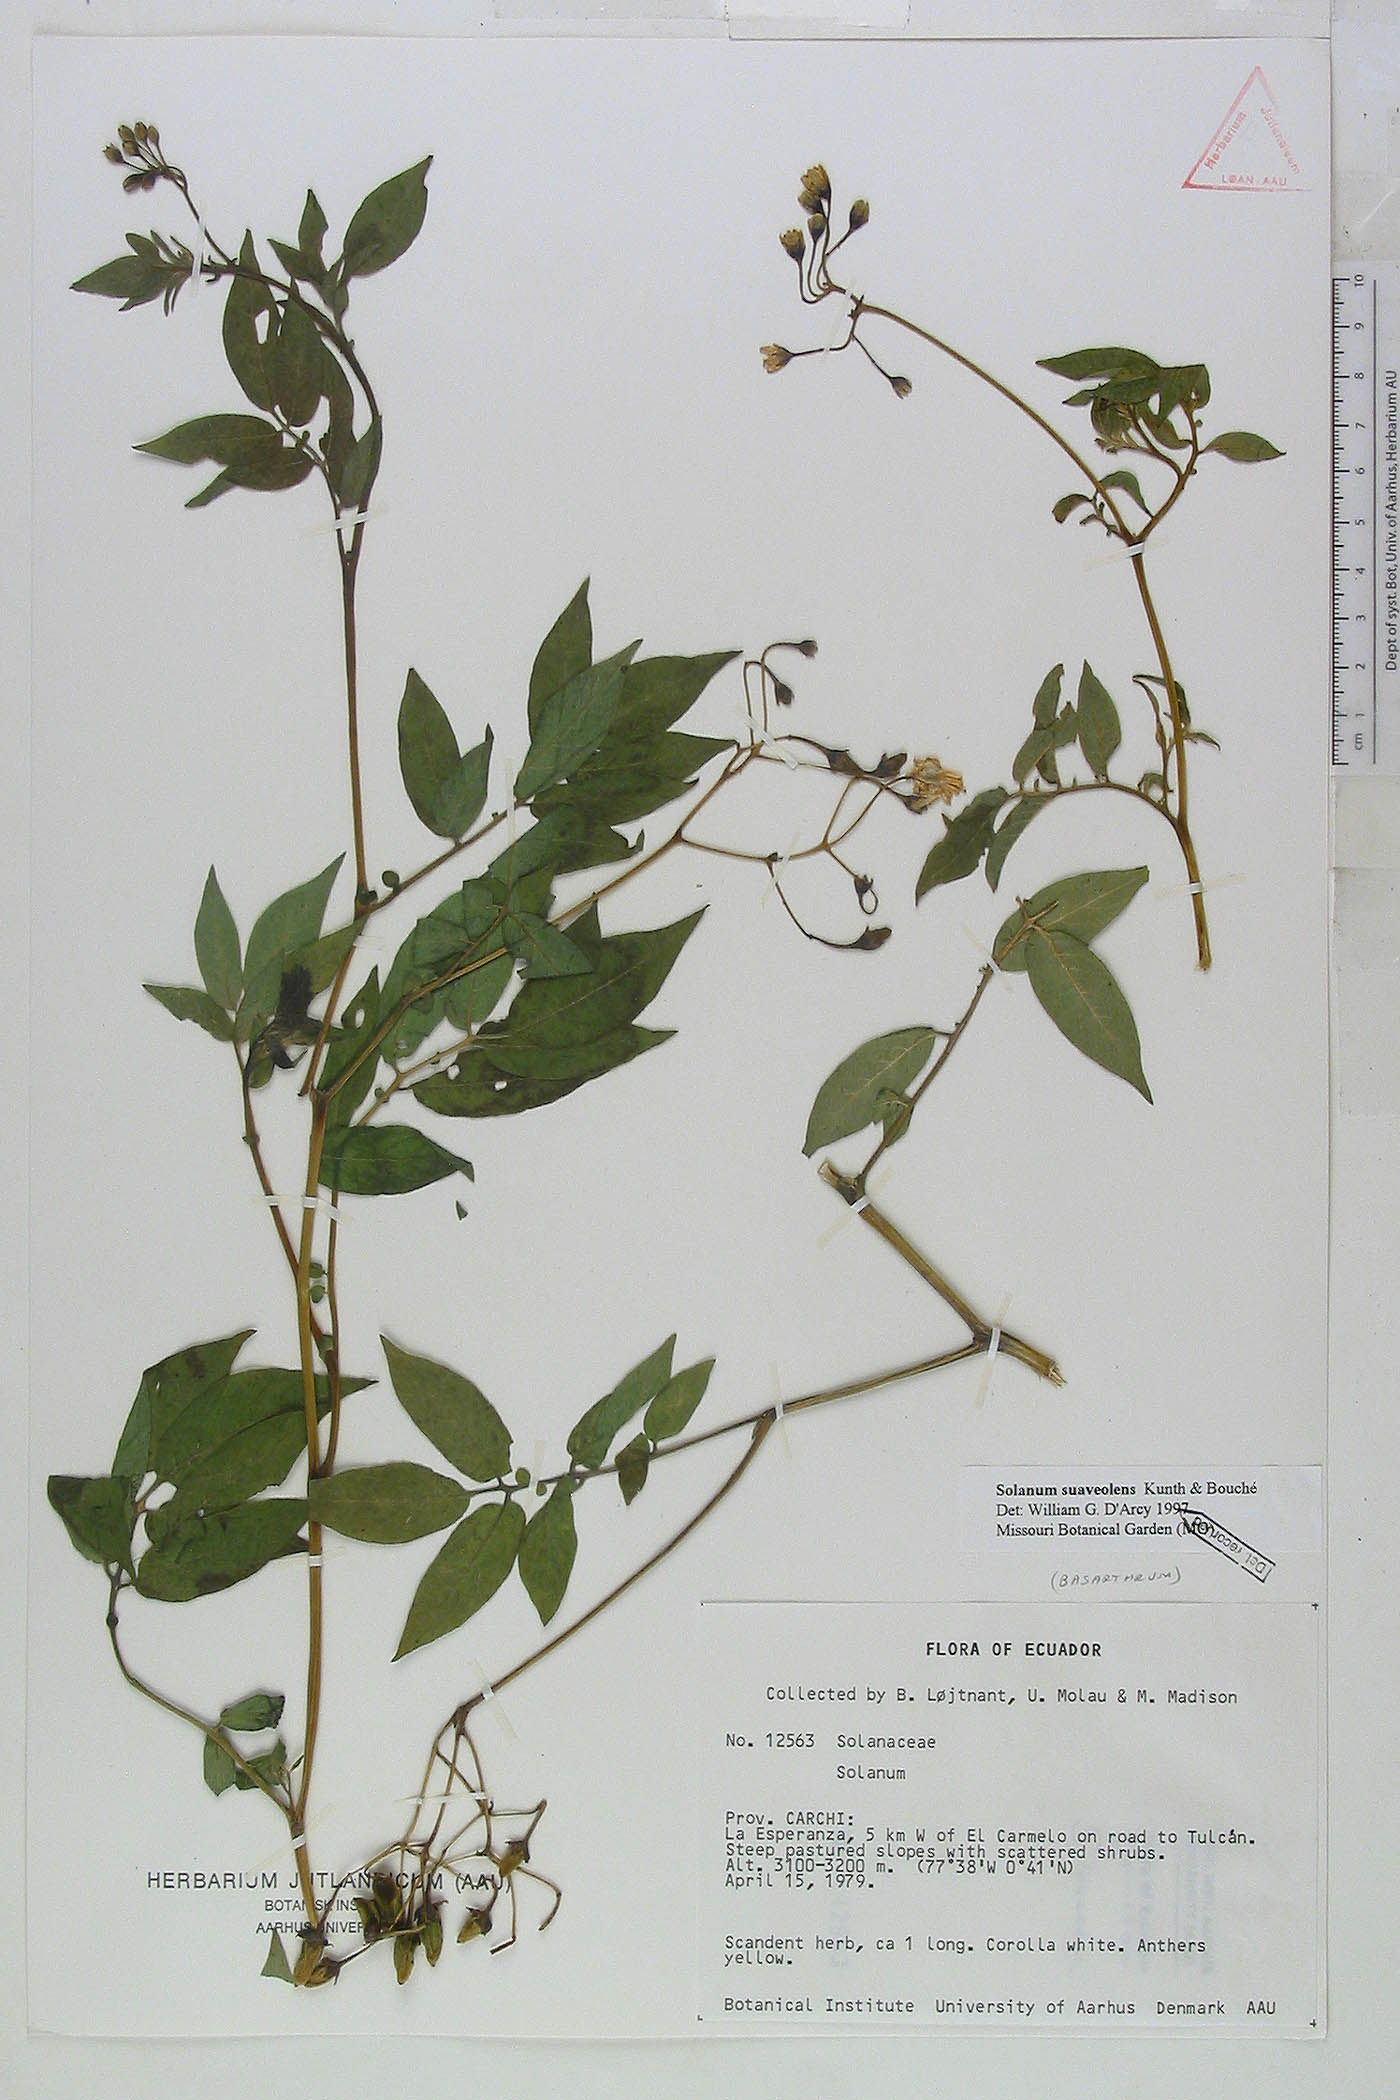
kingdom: Plantae
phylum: Tracheophyta
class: Magnoliopsida
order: Solanales
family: Solanaceae
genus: Solanum
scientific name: Solanum colombianum
